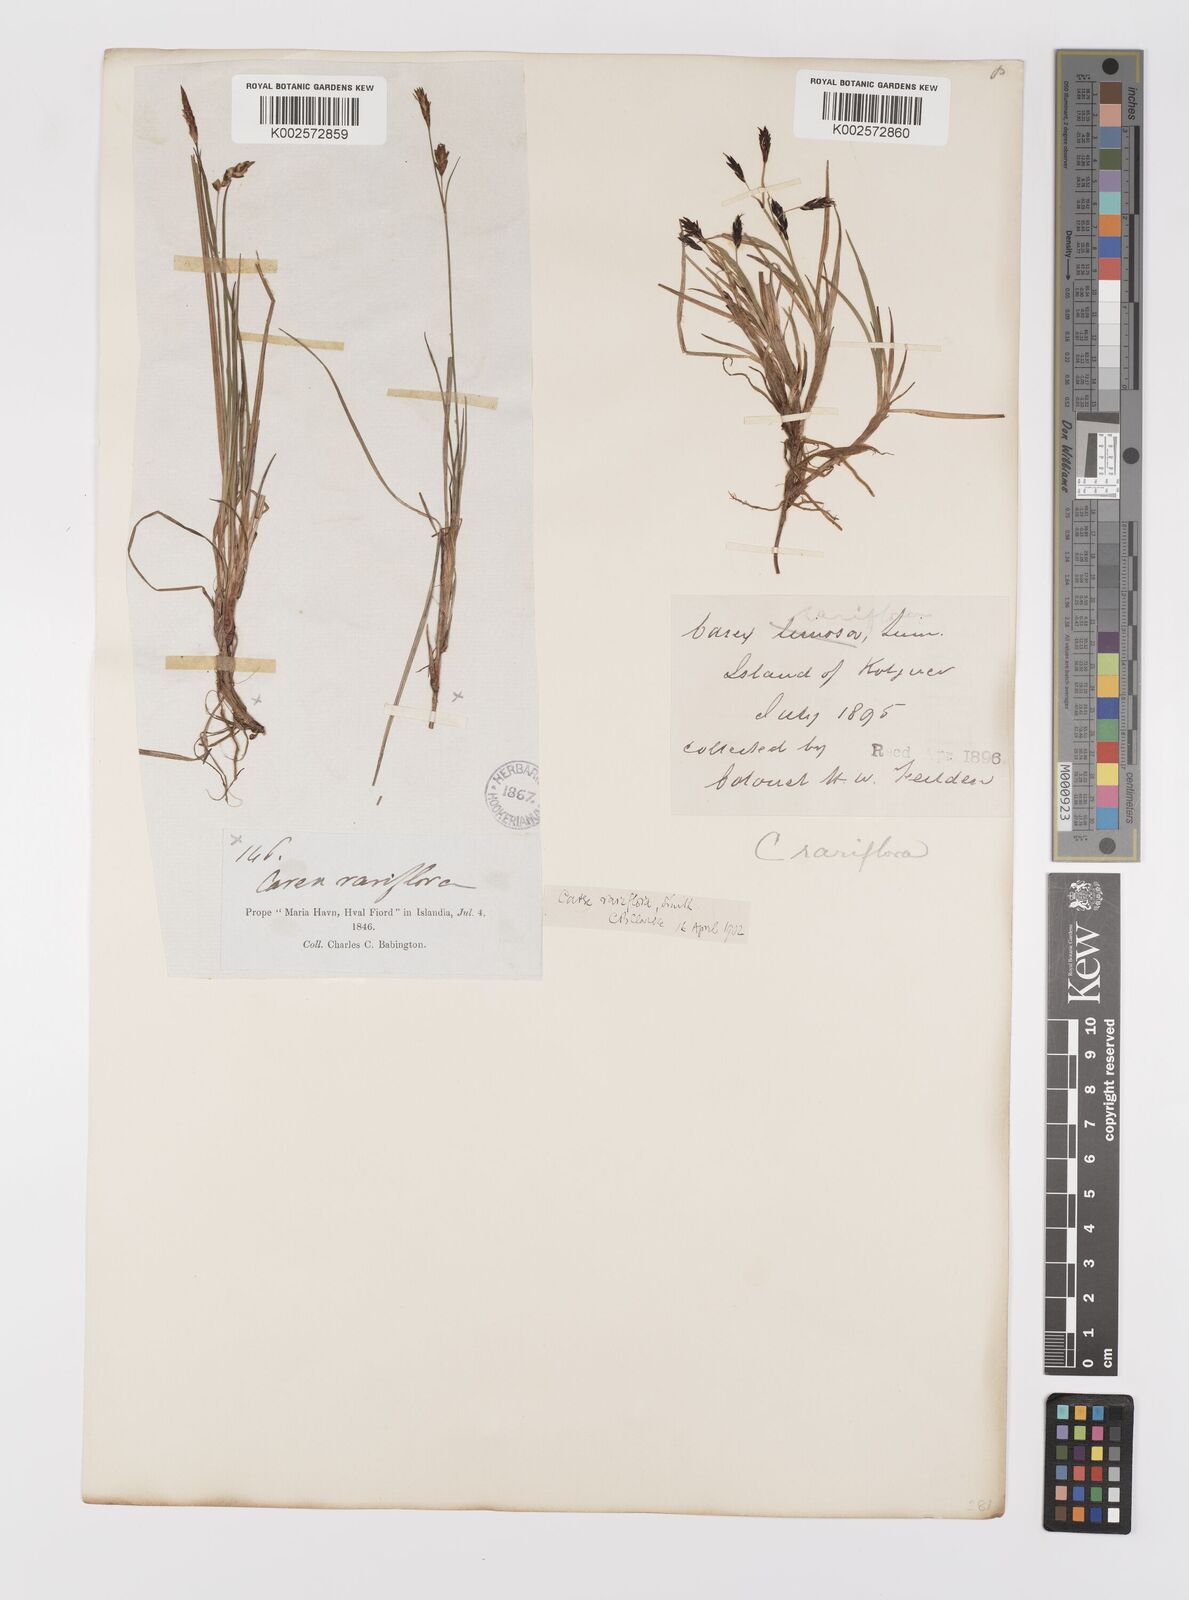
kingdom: Plantae
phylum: Tracheophyta
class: Liliopsida
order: Poales
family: Cyperaceae
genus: Carex
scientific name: Carex rariflora
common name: Loose-flowered alpine sedge
